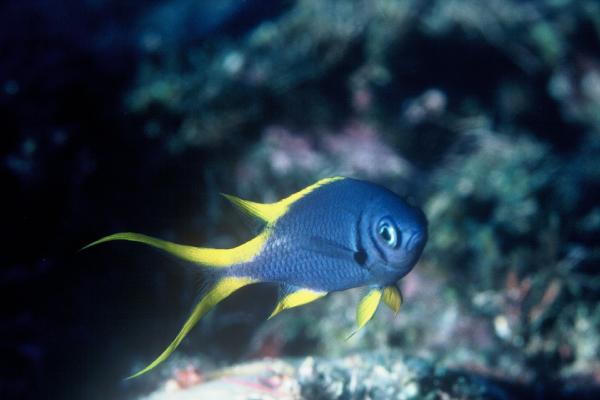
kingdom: Animalia
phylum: Chordata
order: Perciformes
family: Pomacentridae
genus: Chromis
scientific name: Chromis xanthura
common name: Black chromis
